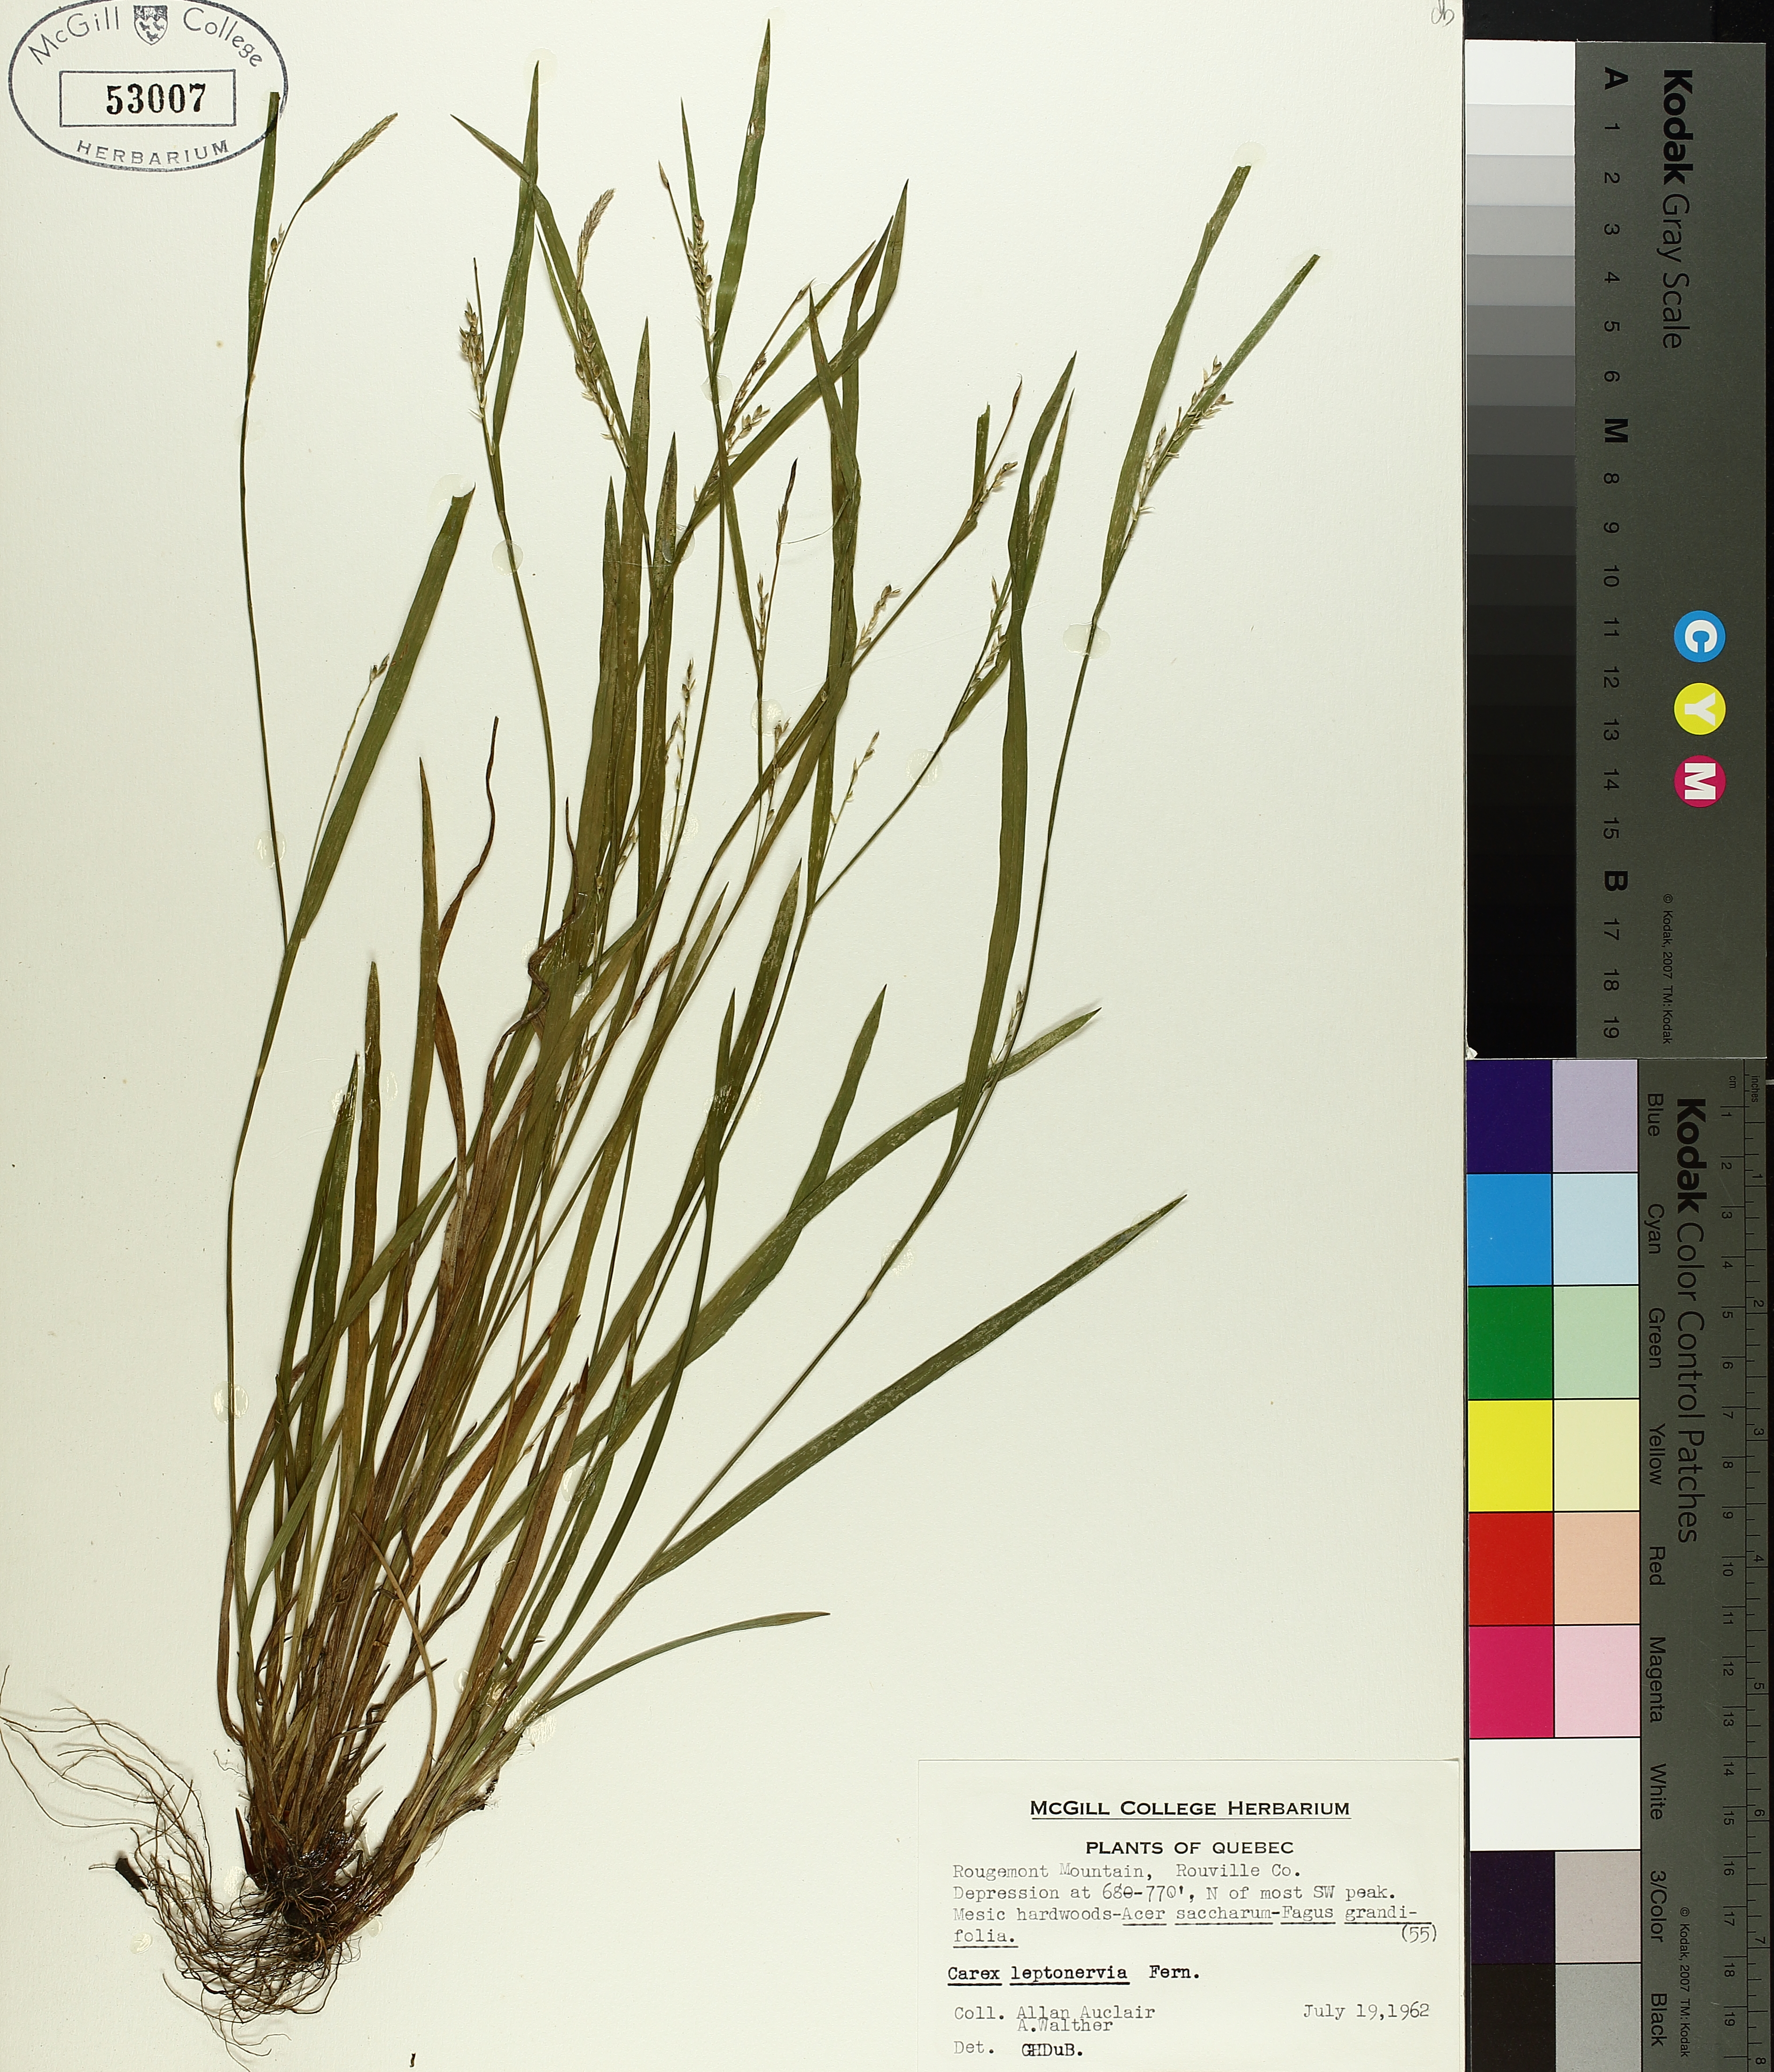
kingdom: Plantae
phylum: Tracheophyta
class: Liliopsida
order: Poales
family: Cyperaceae
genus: Carex
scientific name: Carex leptonervia
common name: Few-nerved wood sedge
